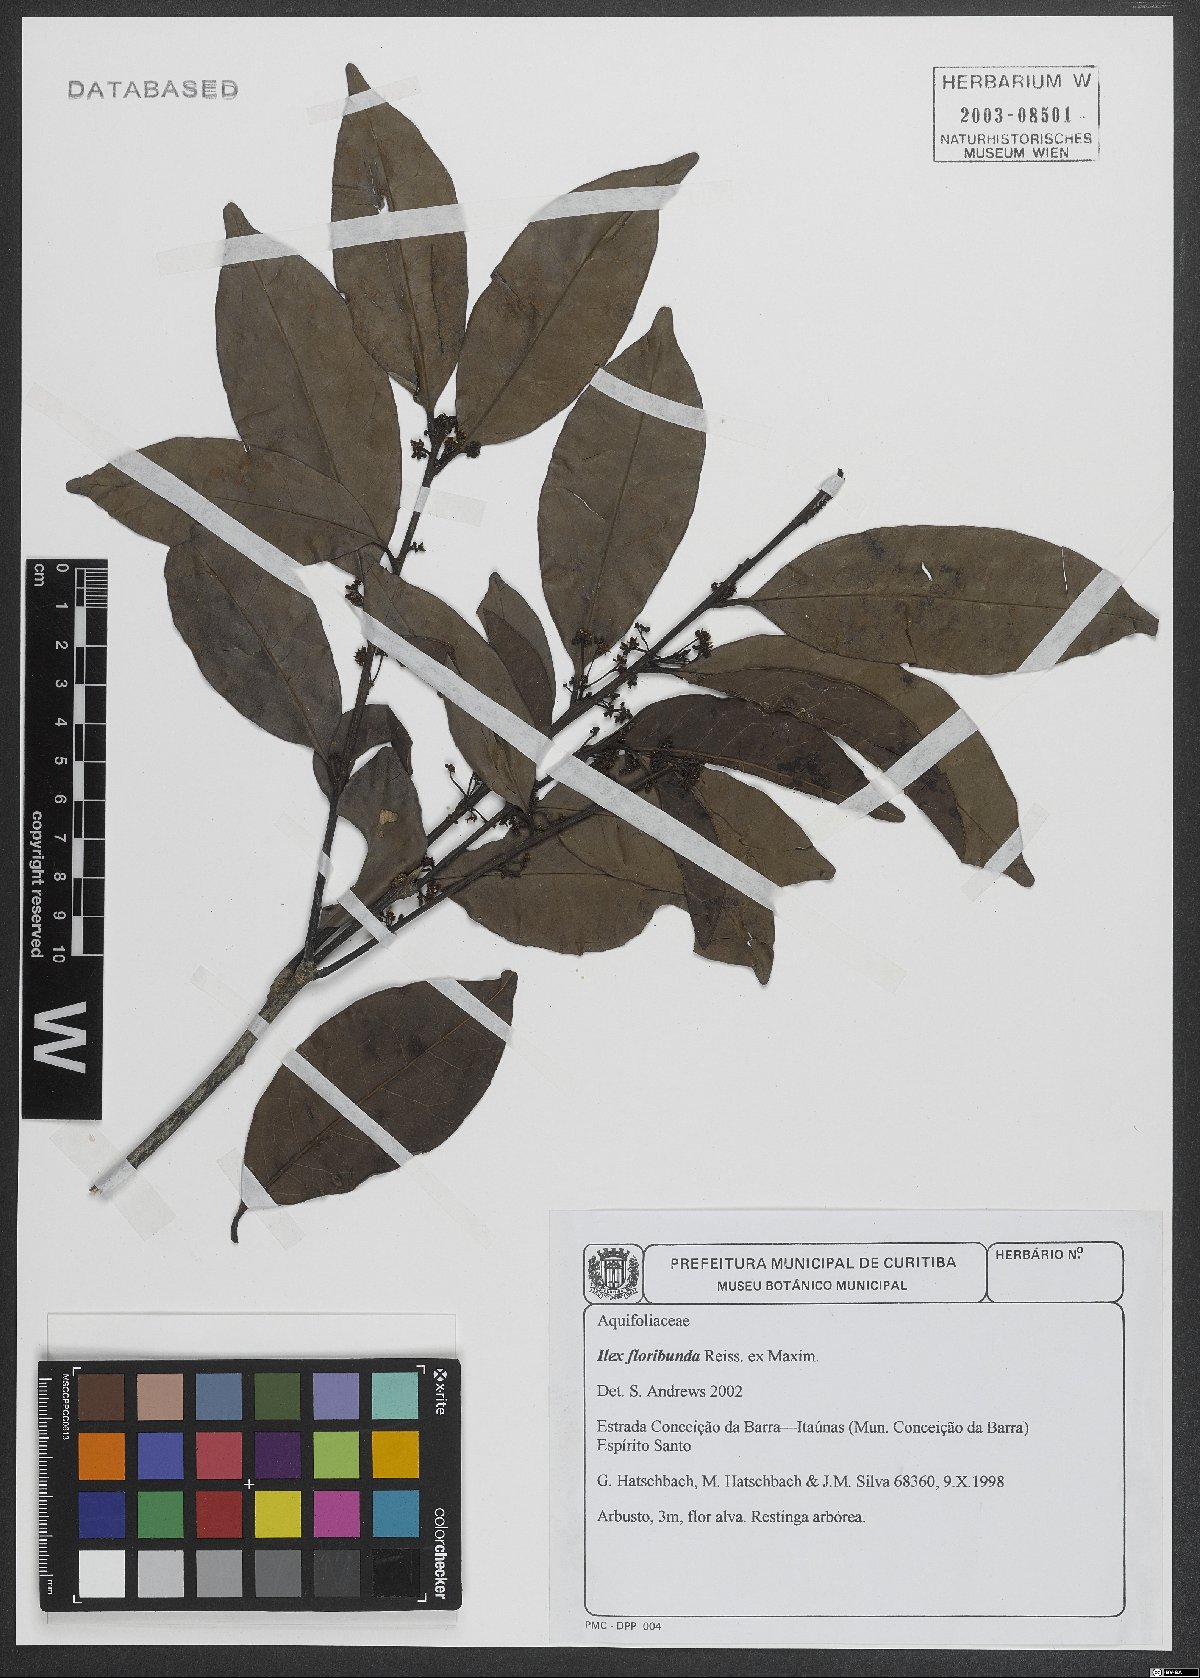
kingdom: Plantae
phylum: Tracheophyta
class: Magnoliopsida
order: Aquifoliales
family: Aquifoliaceae
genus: Ilex
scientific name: Ilex floribunda
